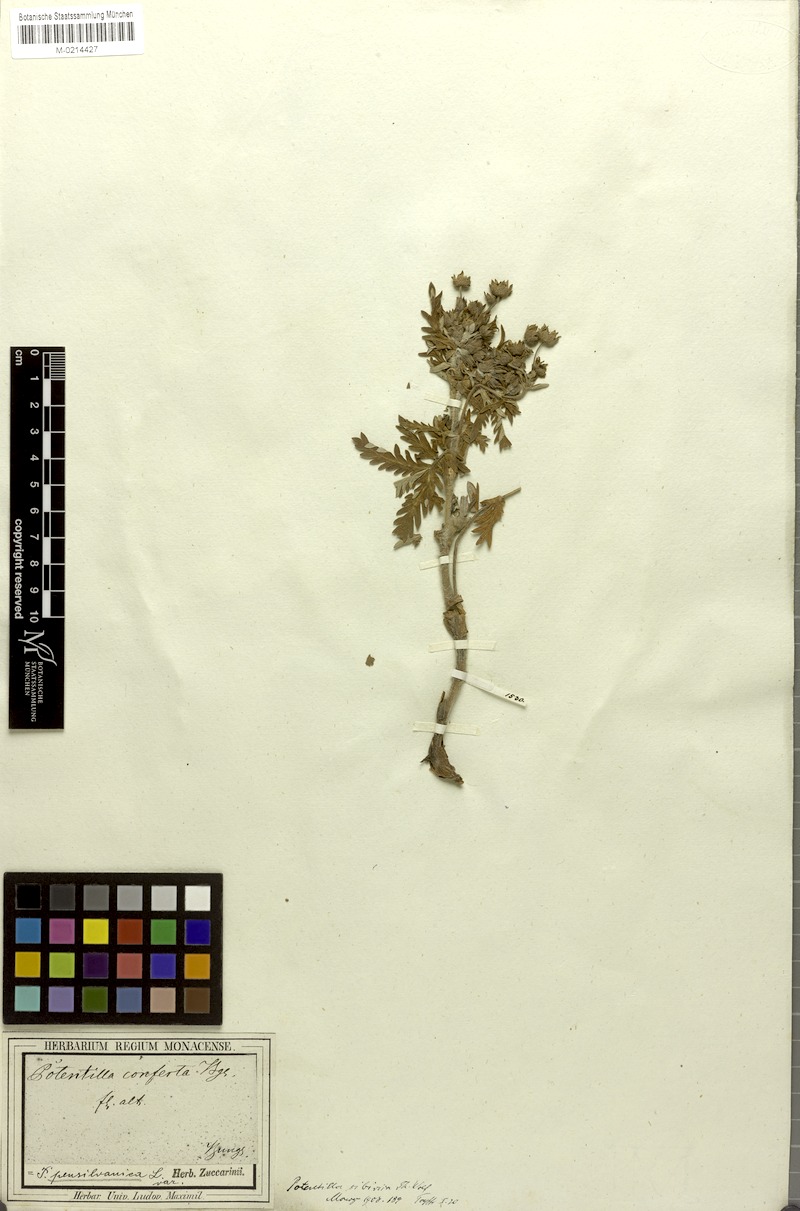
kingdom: Plantae
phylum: Tracheophyta
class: Magnoliopsida
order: Rosales
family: Rosaceae
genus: Potentilla
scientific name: Potentilla conferta
